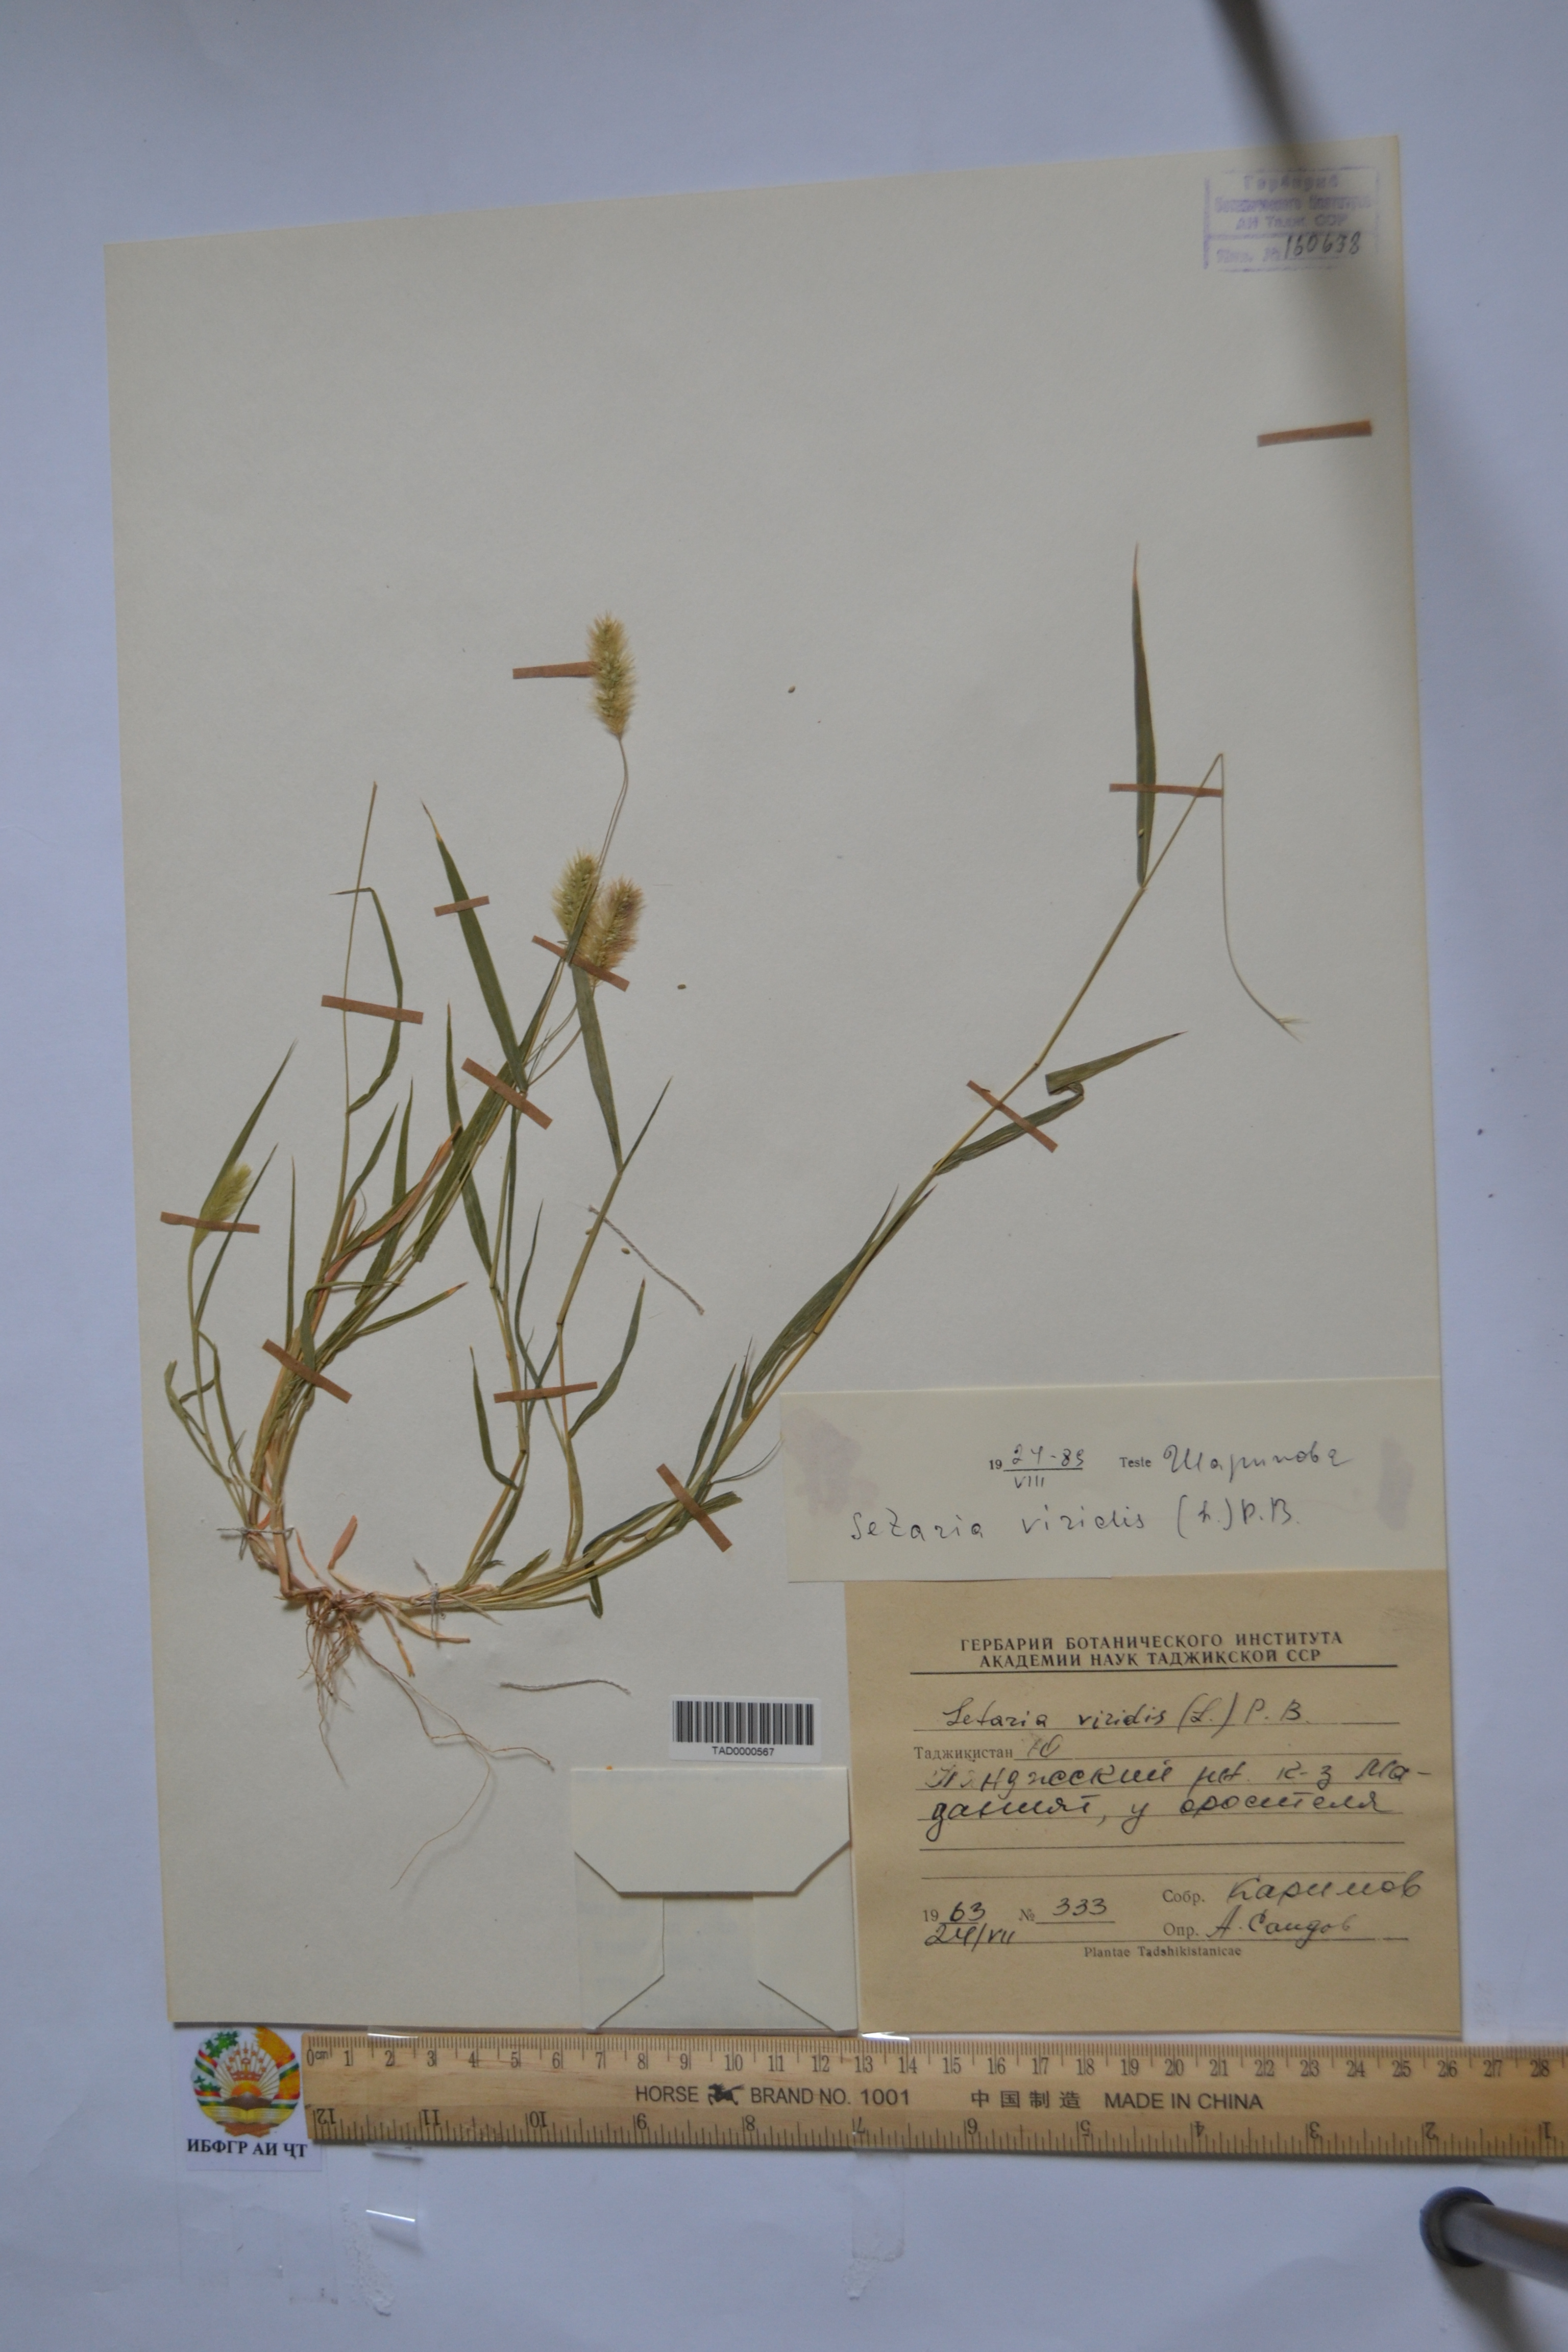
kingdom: Plantae
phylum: Tracheophyta
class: Liliopsida
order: Poales
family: Poaceae
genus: Setaria
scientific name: Setaria viridis
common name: Green bristlegrass
